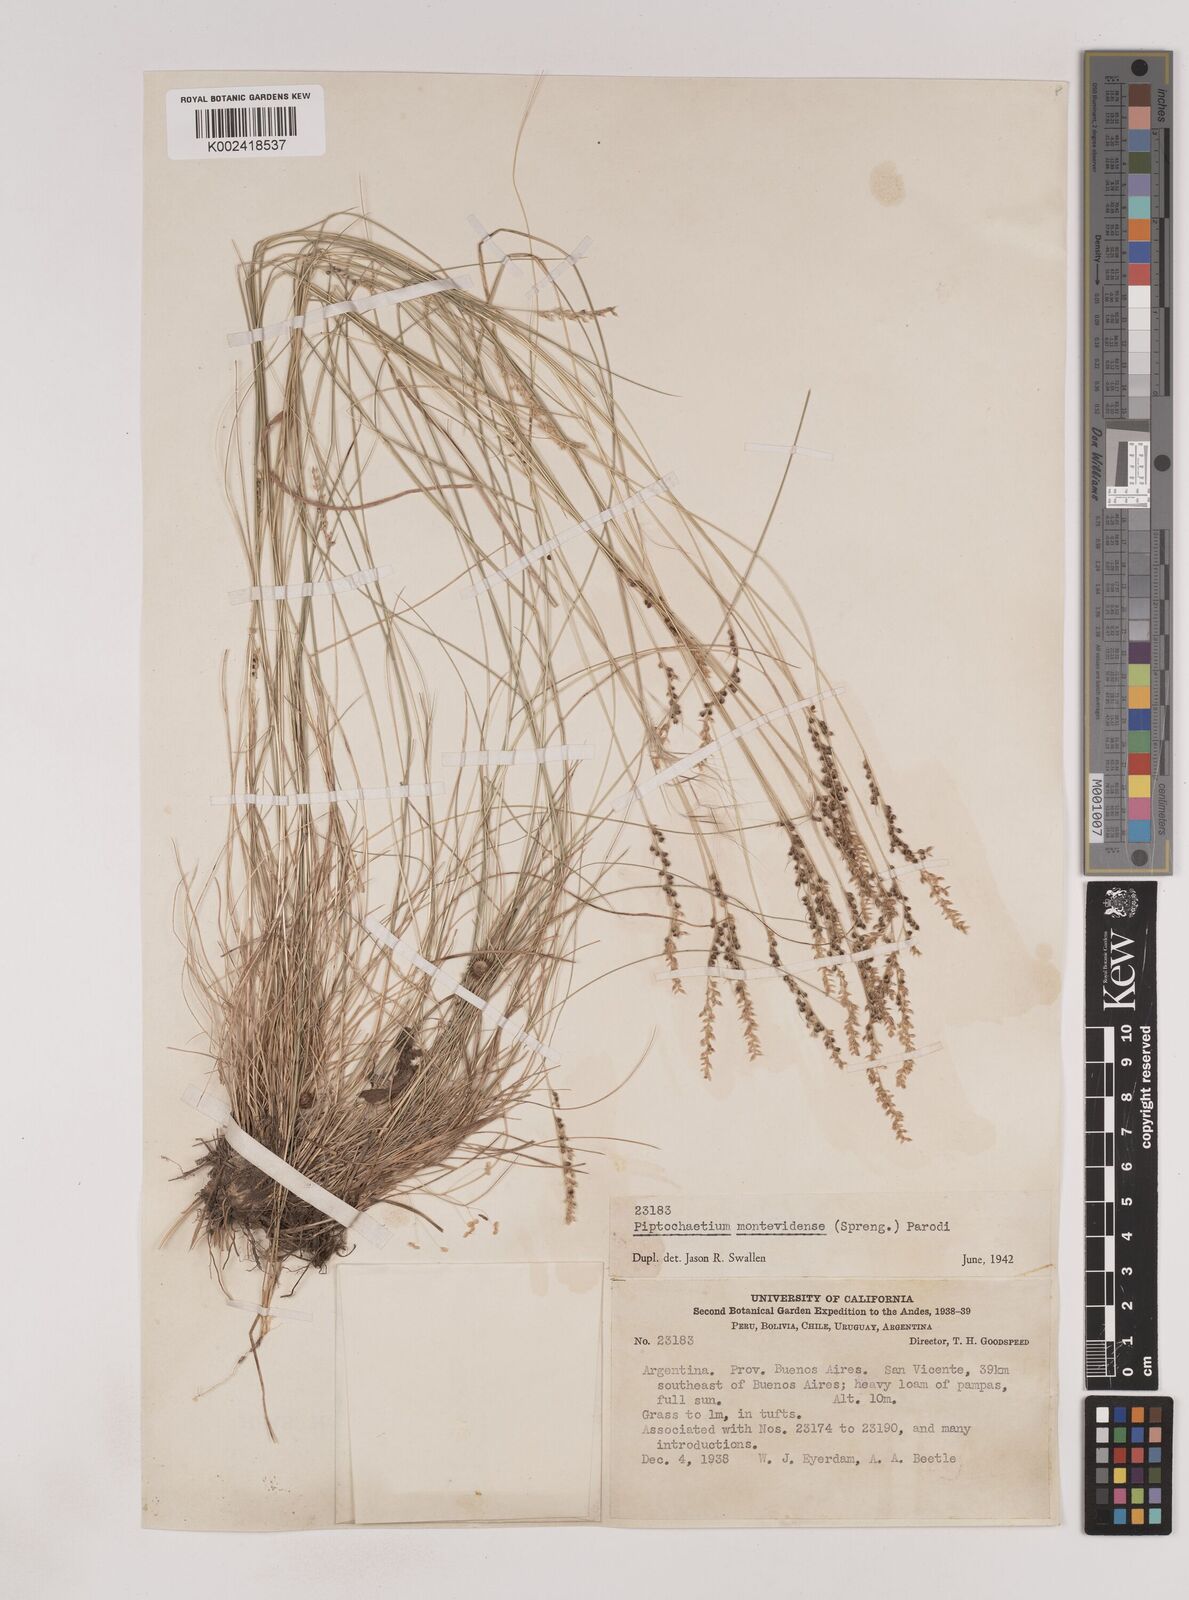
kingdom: Plantae
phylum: Tracheophyta
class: Liliopsida
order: Poales
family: Poaceae
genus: Piptochaetium
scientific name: Piptochaetium montevidense
